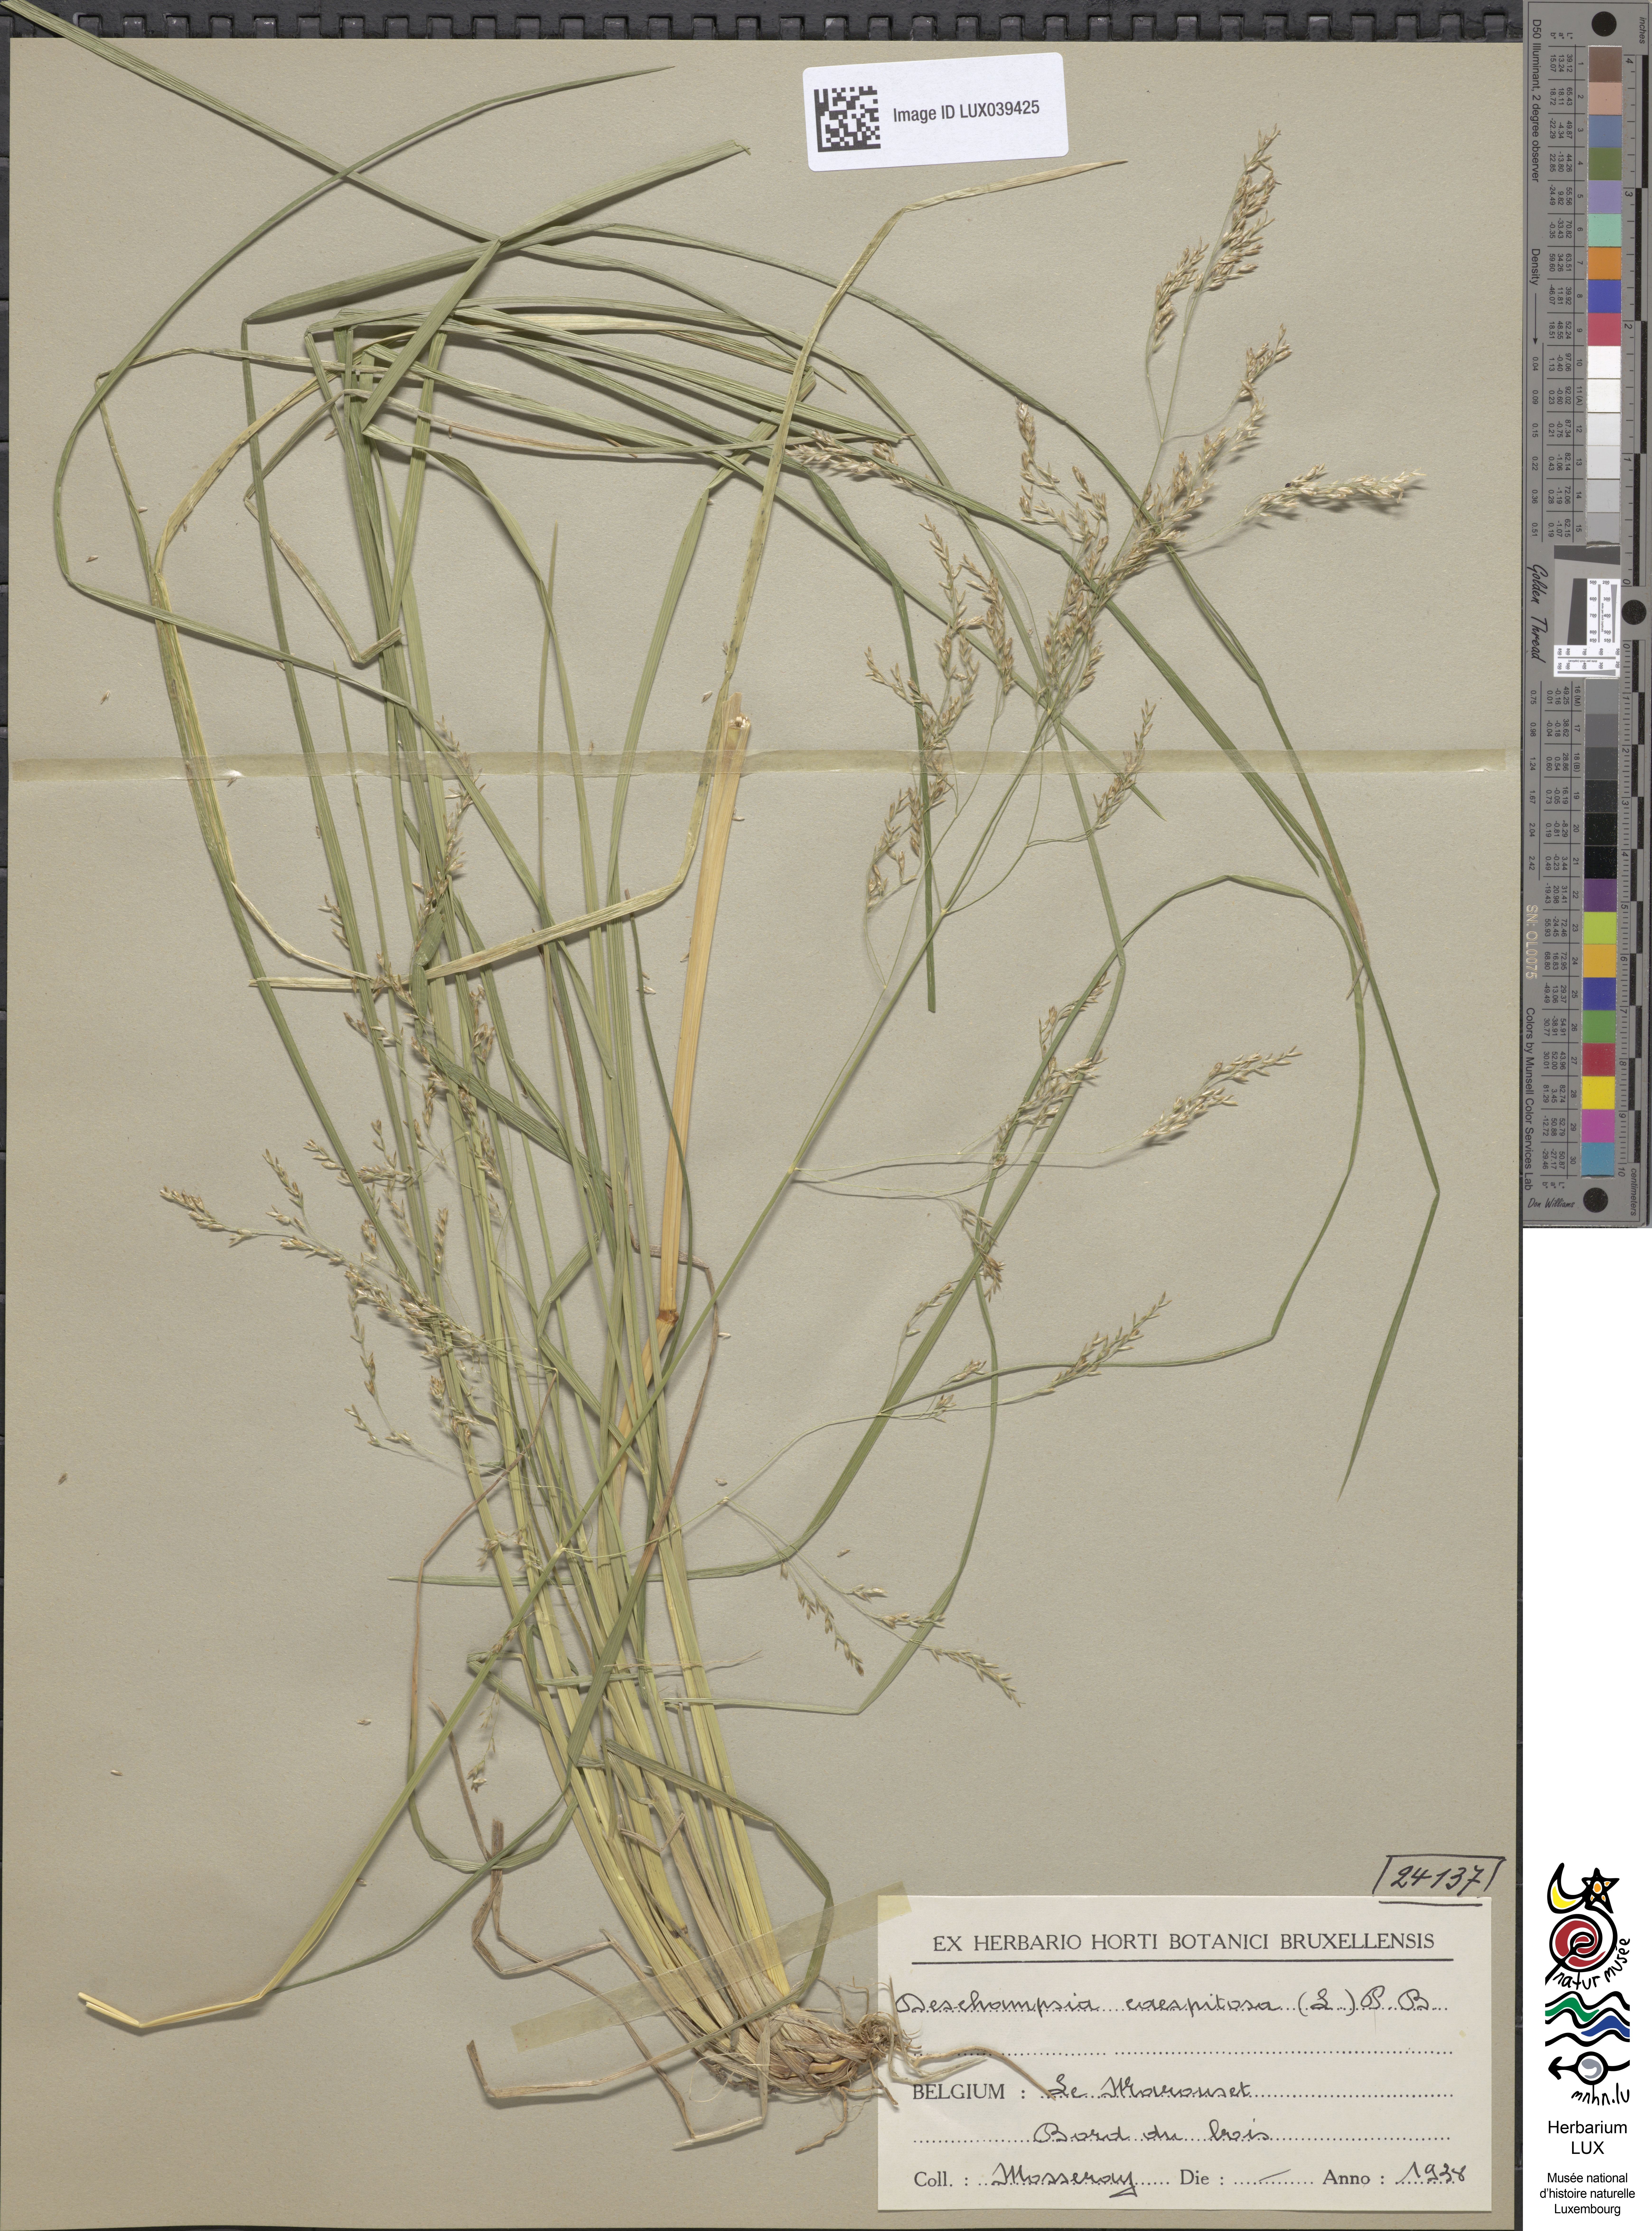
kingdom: Plantae
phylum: Tracheophyta
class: Liliopsida
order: Poales
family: Poaceae
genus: Deschampsia
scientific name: Deschampsia cespitosa
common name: Tufted hair-grass
